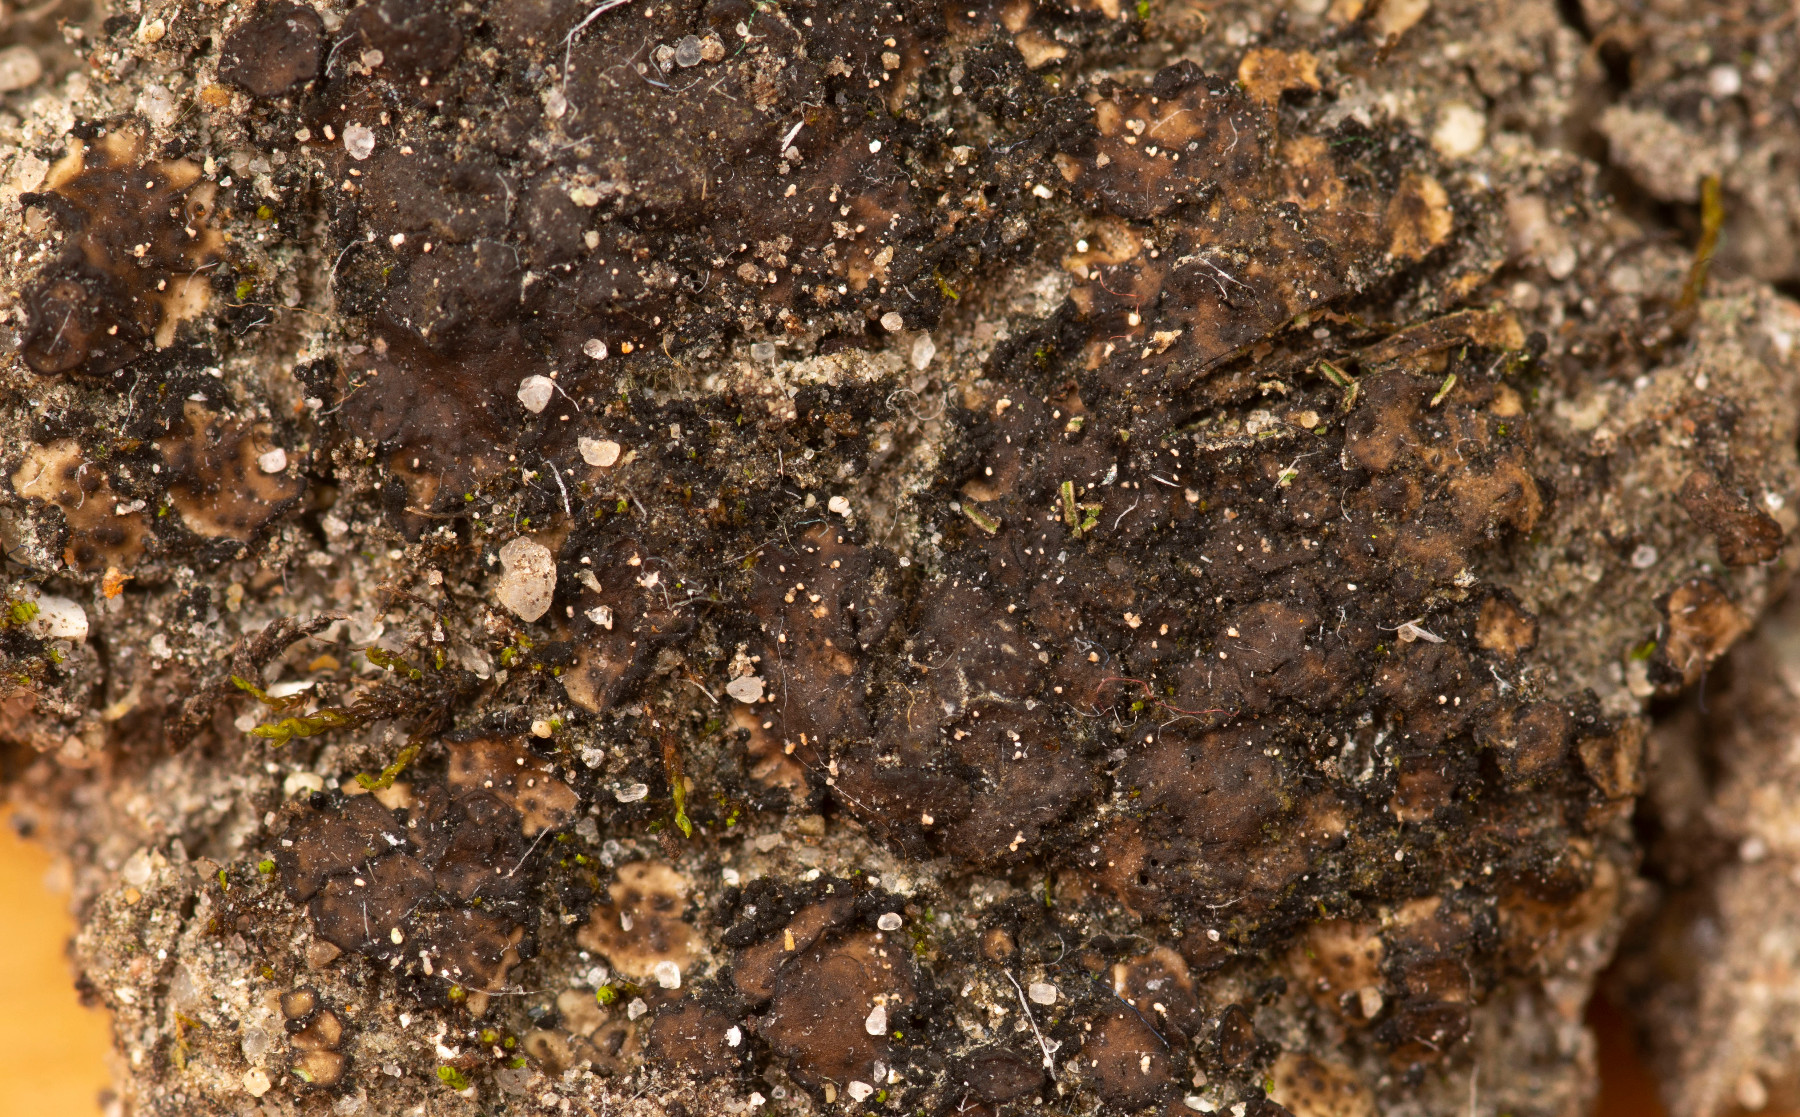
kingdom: Fungi
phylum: Ascomycota
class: Eurotiomycetes
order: Verrucariales
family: Verrucariaceae
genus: Catapyrenium
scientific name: Catapyrenium squamulosum
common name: skællet læderlav
